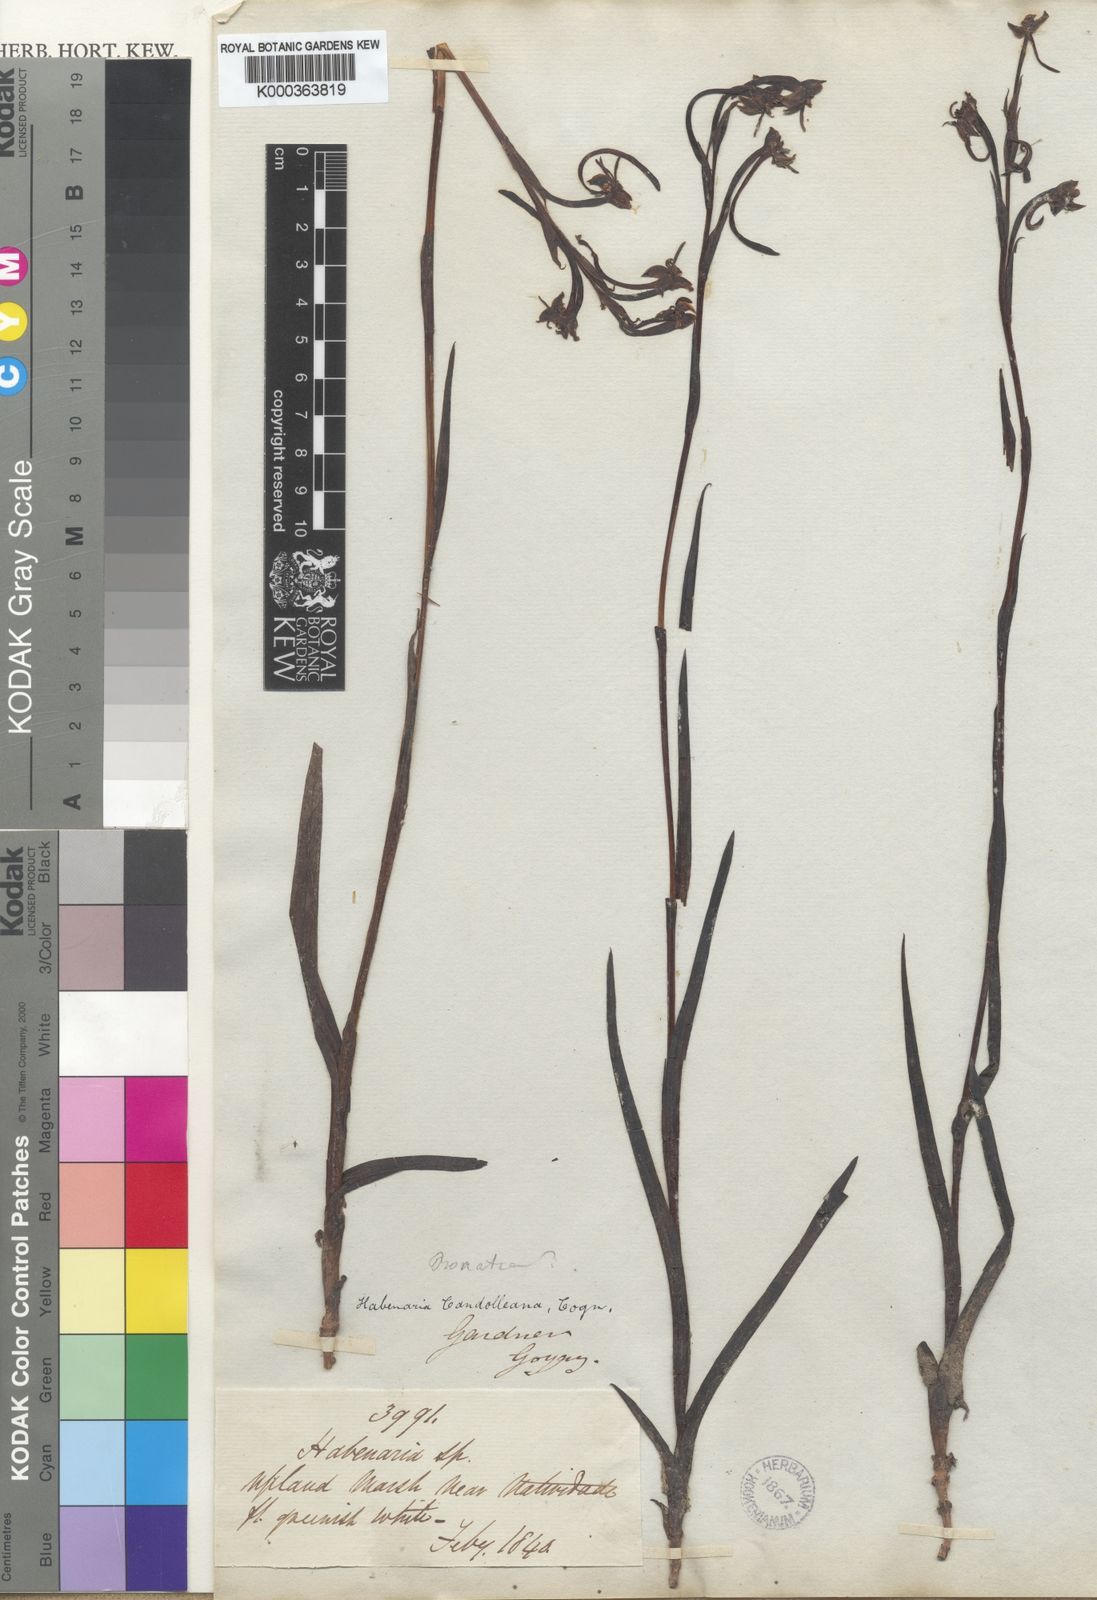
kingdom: Plantae
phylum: Tracheophyta
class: Liliopsida
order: Asparagales
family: Orchidaceae
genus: Habenaria
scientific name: Habenaria trifida
